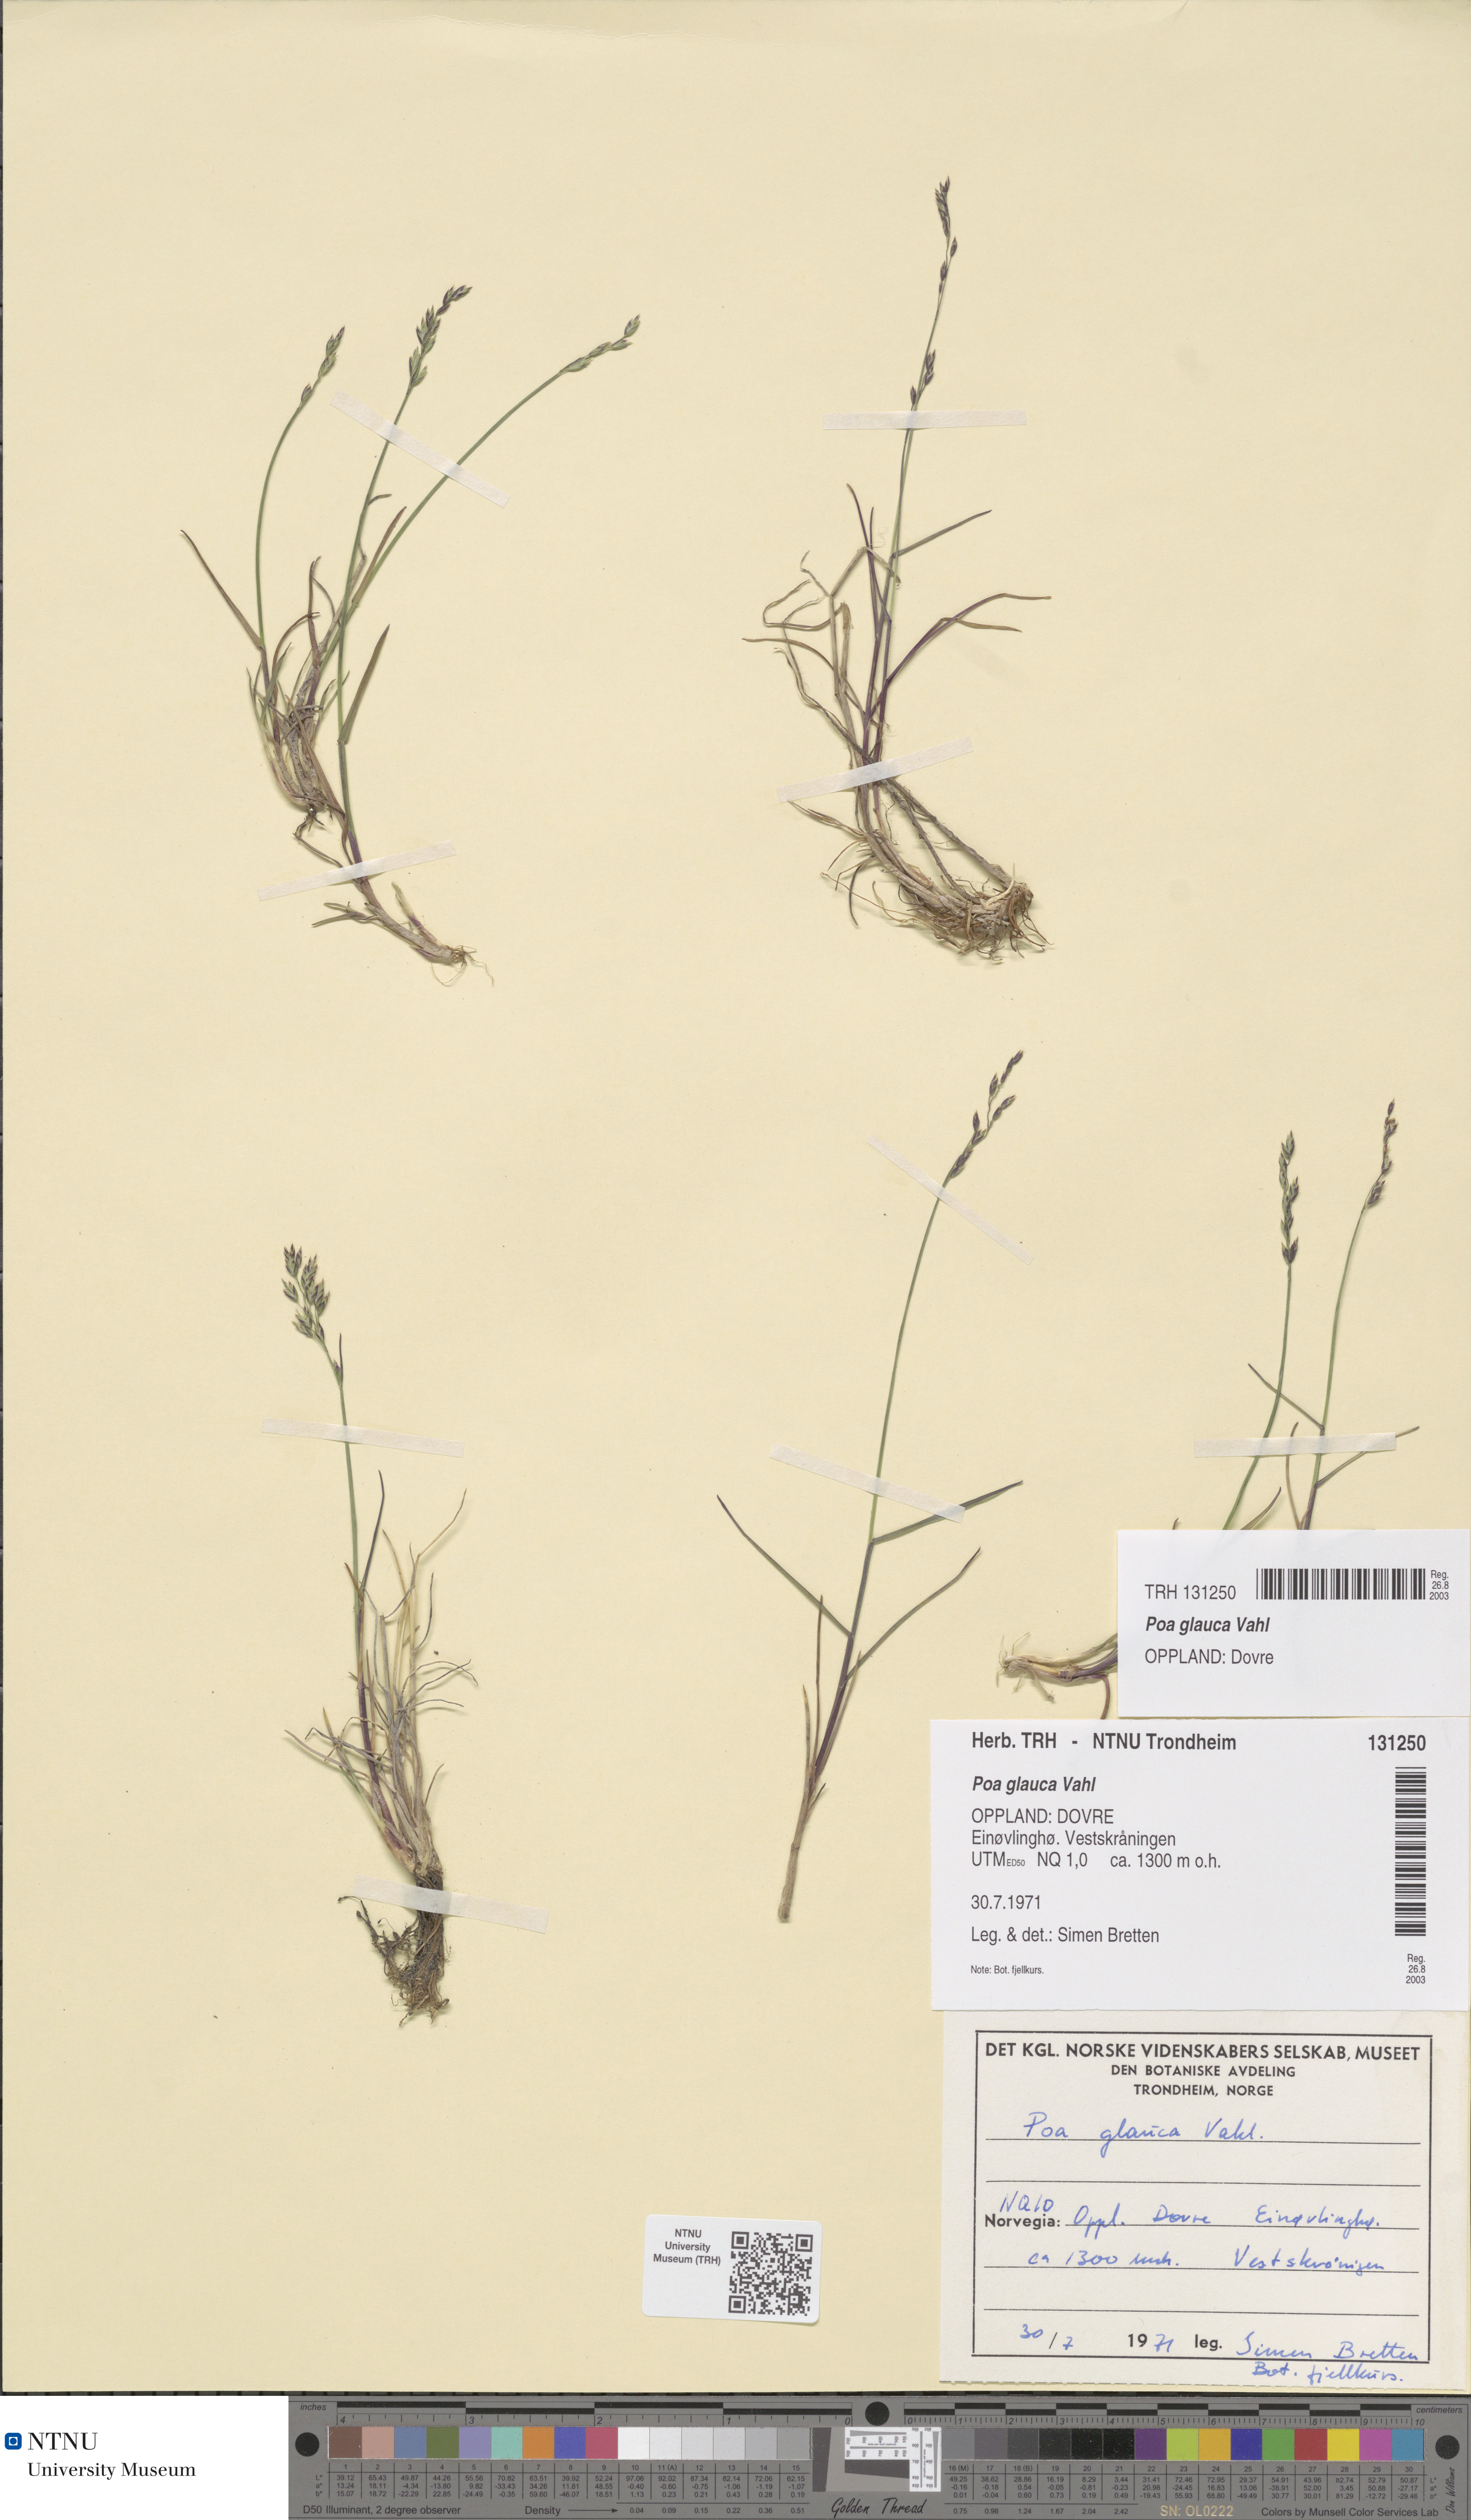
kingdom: Plantae
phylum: Tracheophyta
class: Liliopsida
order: Poales
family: Poaceae
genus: Poa
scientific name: Poa glauca
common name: Glaucous bluegrass
